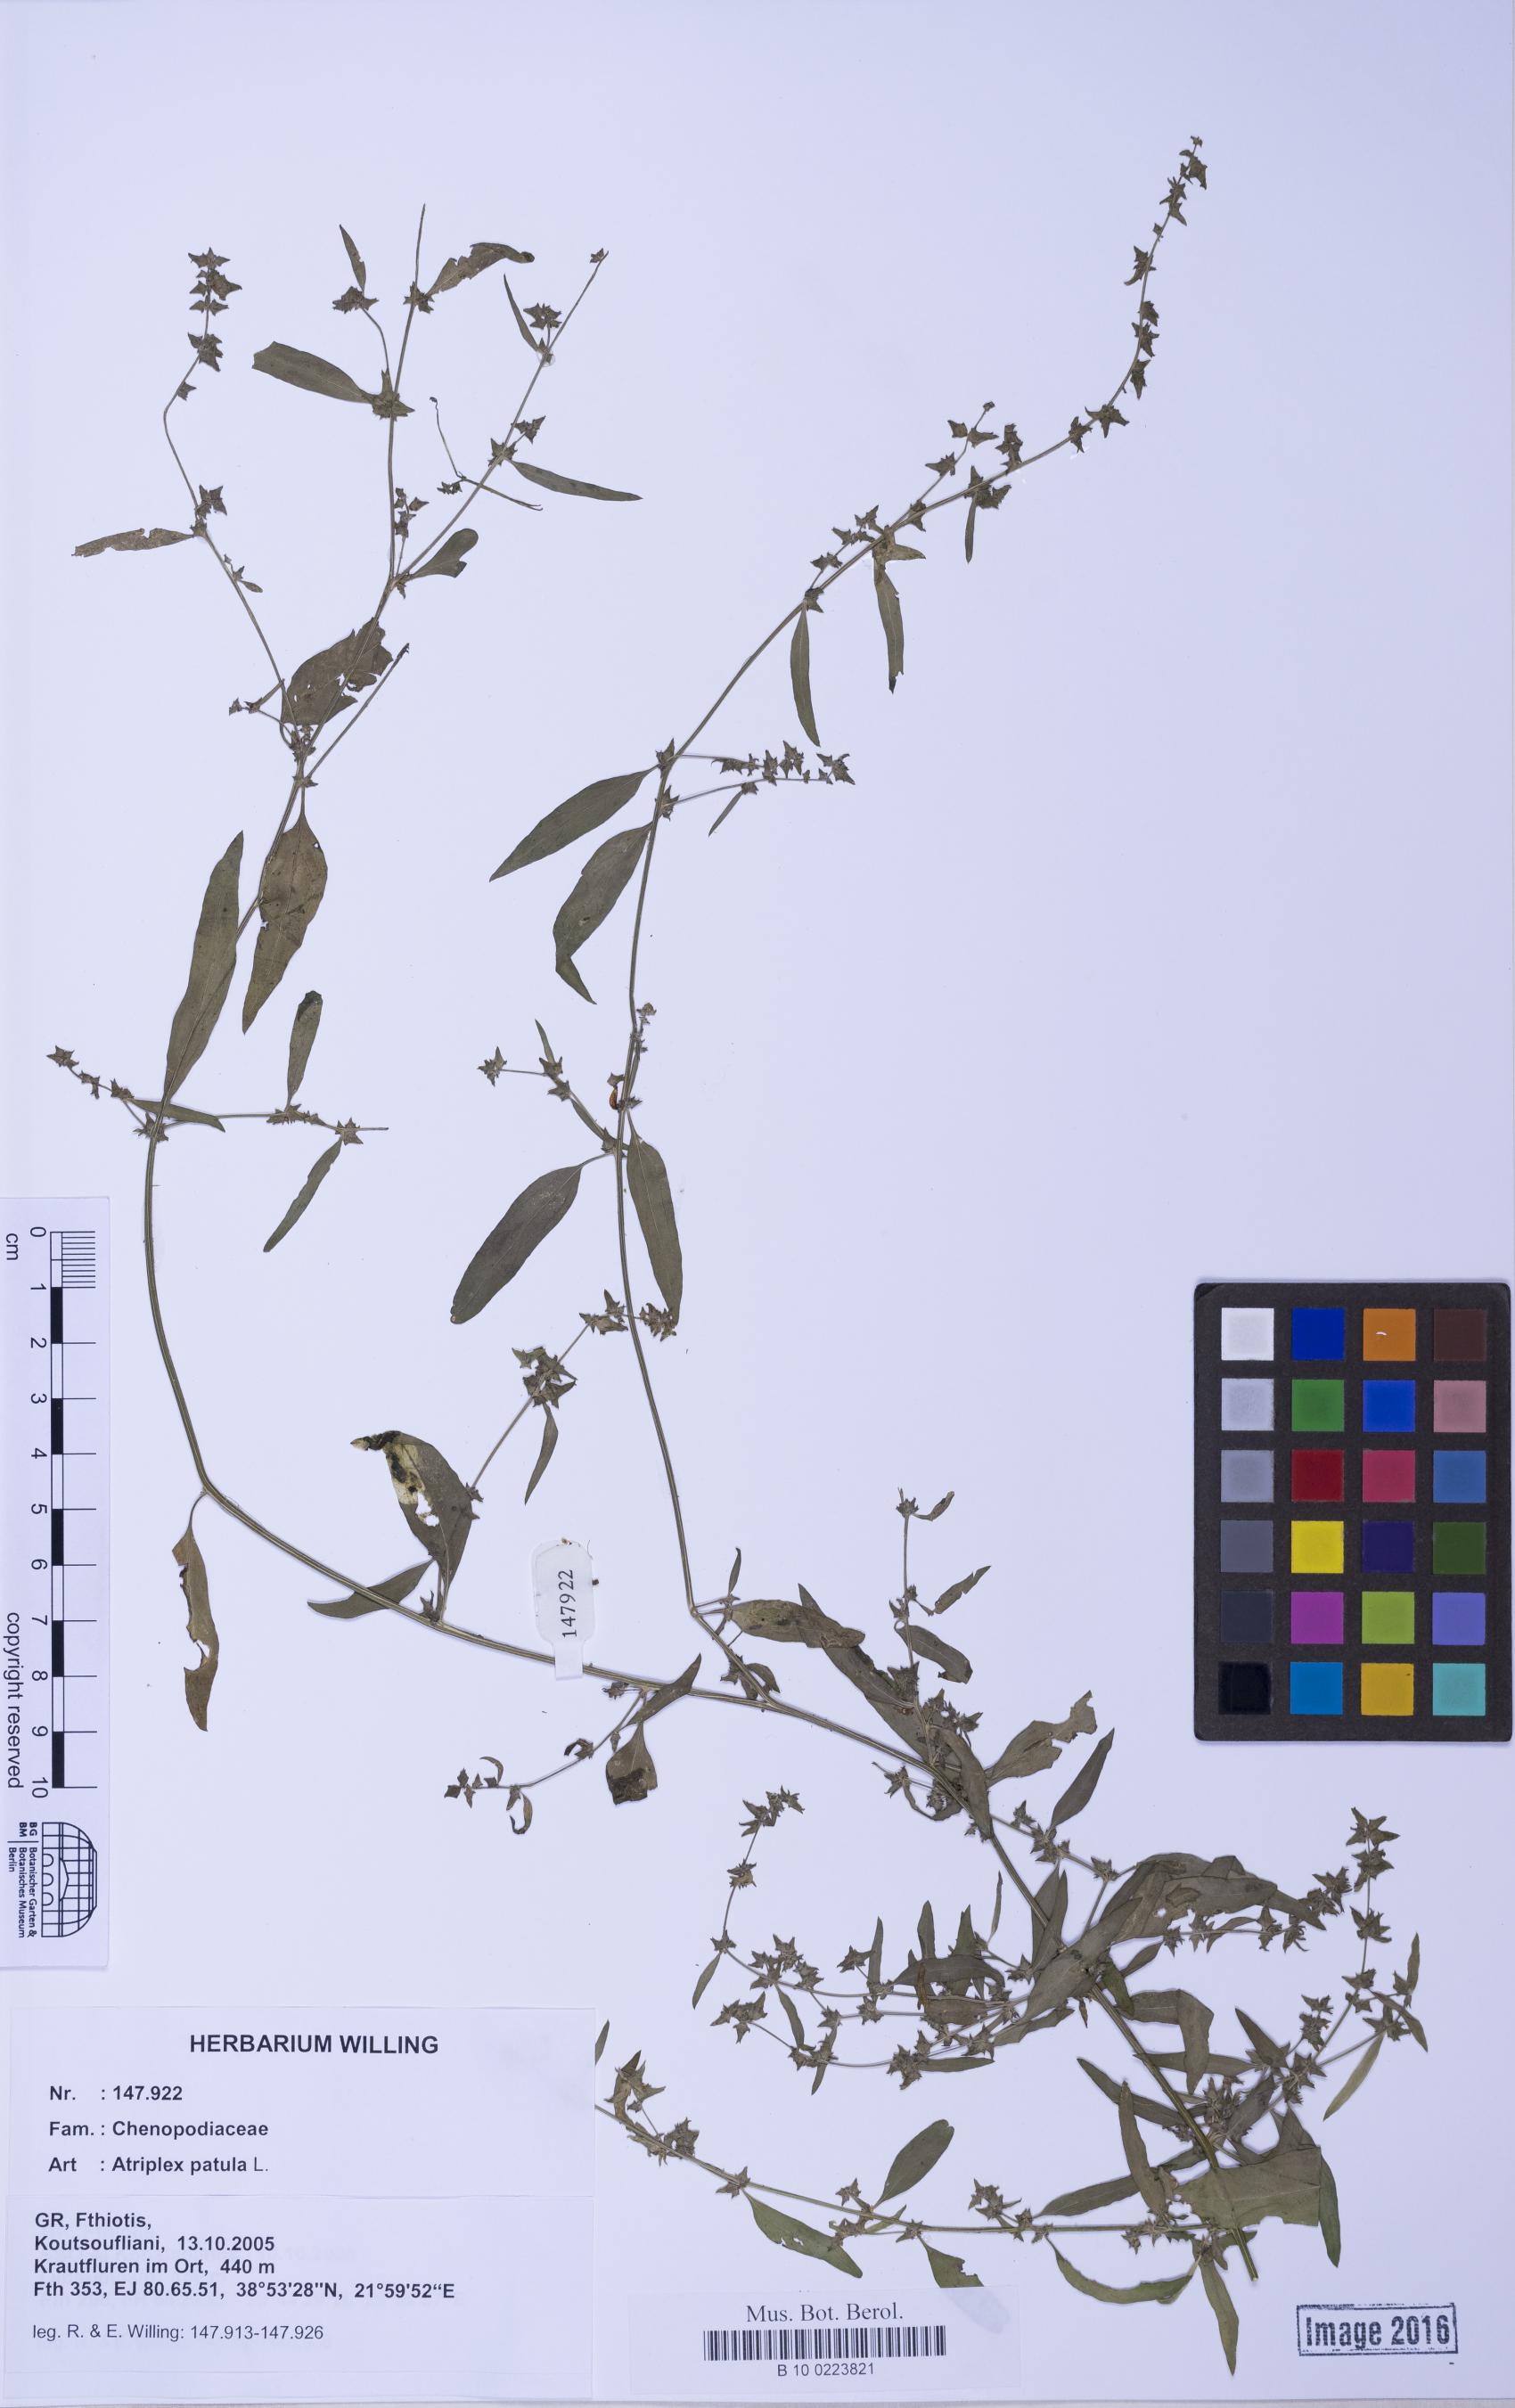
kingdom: Plantae
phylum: Tracheophyta
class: Magnoliopsida
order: Caryophyllales
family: Amaranthaceae
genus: Atriplex
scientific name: Atriplex patula
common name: Common orache
